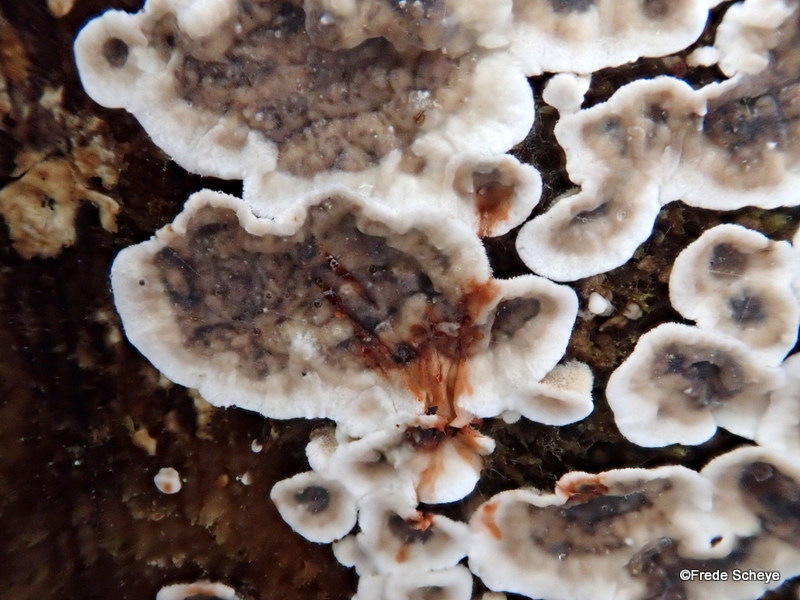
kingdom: Fungi
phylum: Basidiomycota
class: Agaricomycetes
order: Russulales
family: Stereaceae
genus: Stereum
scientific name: Stereum sanguinolentum
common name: blødende lædersvamp
